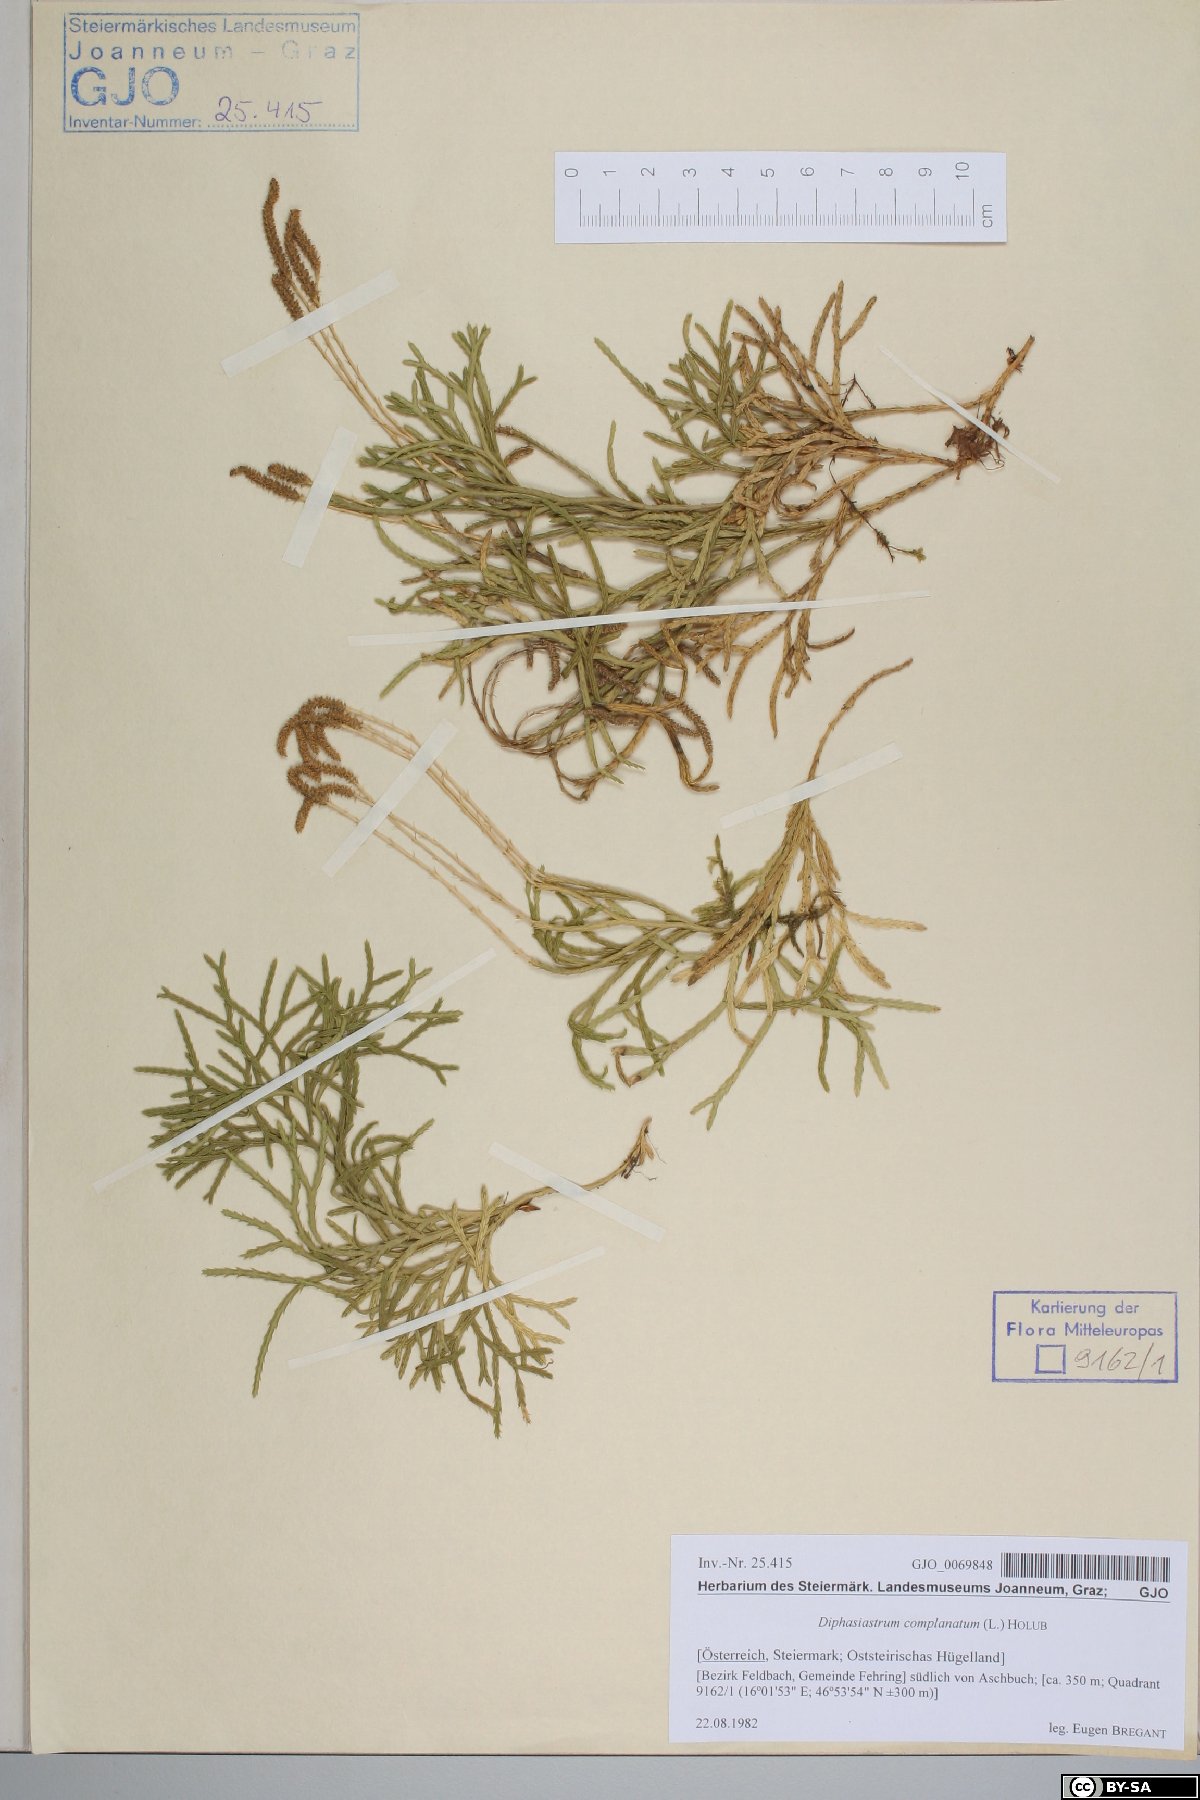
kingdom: Plantae
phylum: Tracheophyta
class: Lycopodiopsida
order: Lycopodiales
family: Lycopodiaceae
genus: Diphasiastrum
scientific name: Diphasiastrum complanatum
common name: Northern running-pine
